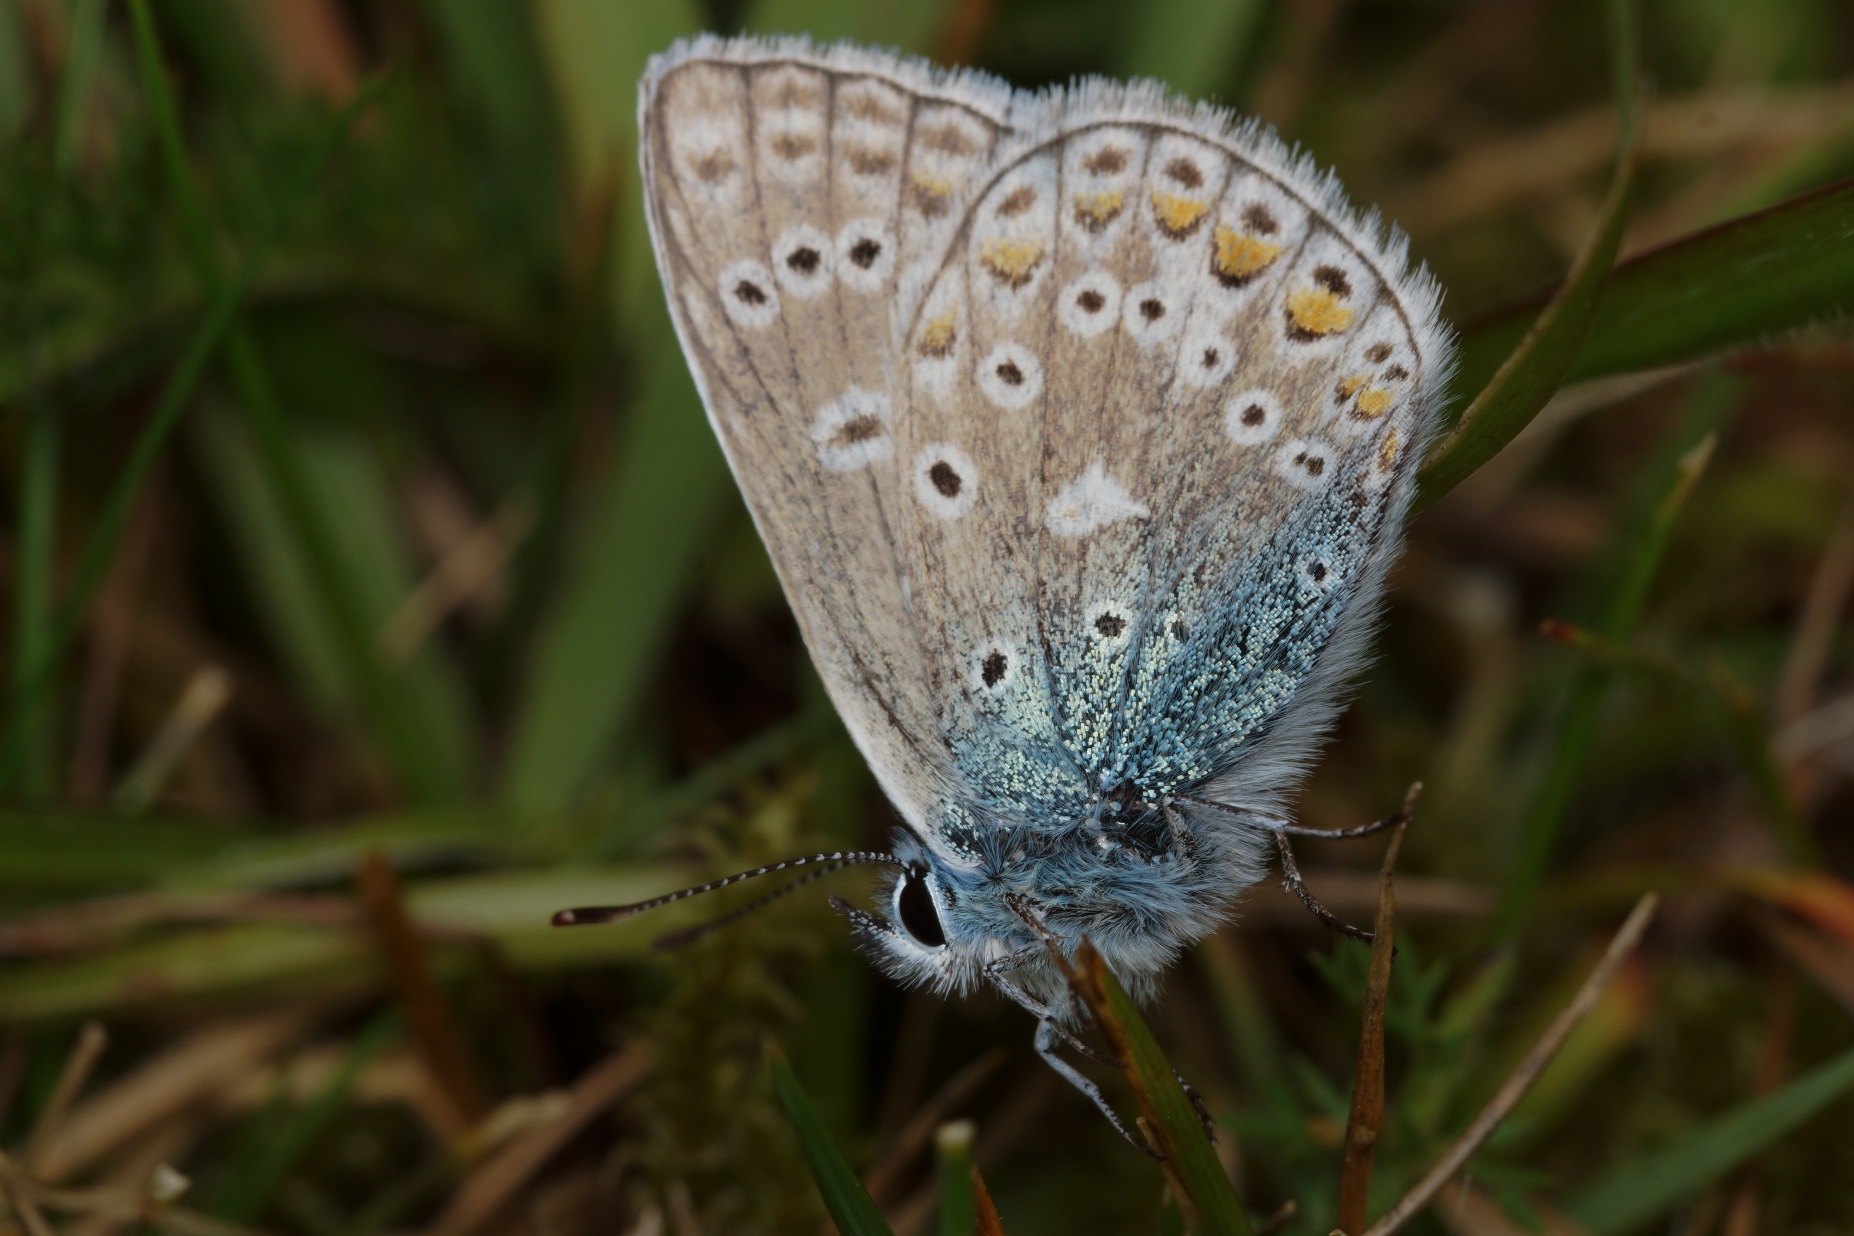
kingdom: Animalia
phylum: Arthropoda
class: Insecta
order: Lepidoptera
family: Lycaenidae
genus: Polyommatus
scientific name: Polyommatus icarus
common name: Almindelig blåfugl
